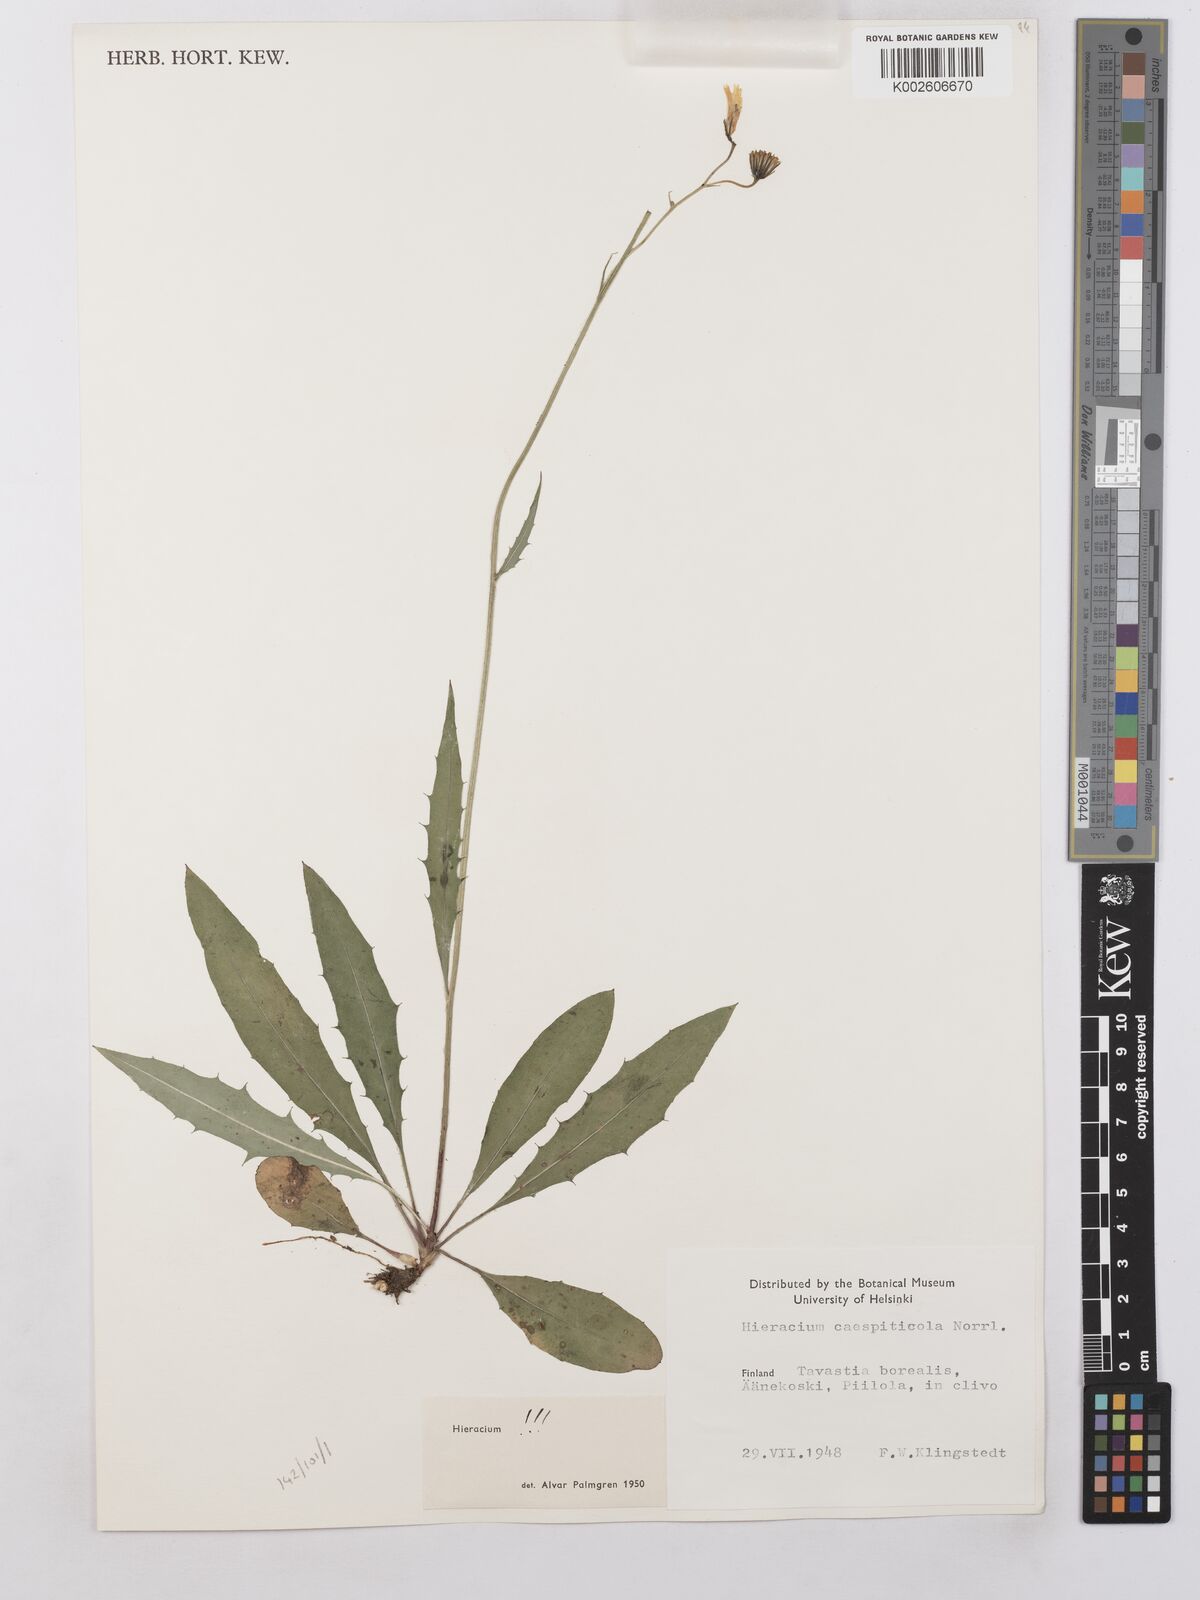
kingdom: Plantae
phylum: Tracheophyta
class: Magnoliopsida
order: Asterales
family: Asteraceae
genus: Hieracium
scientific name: Hieracium lachenalii
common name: Common hawkweed
